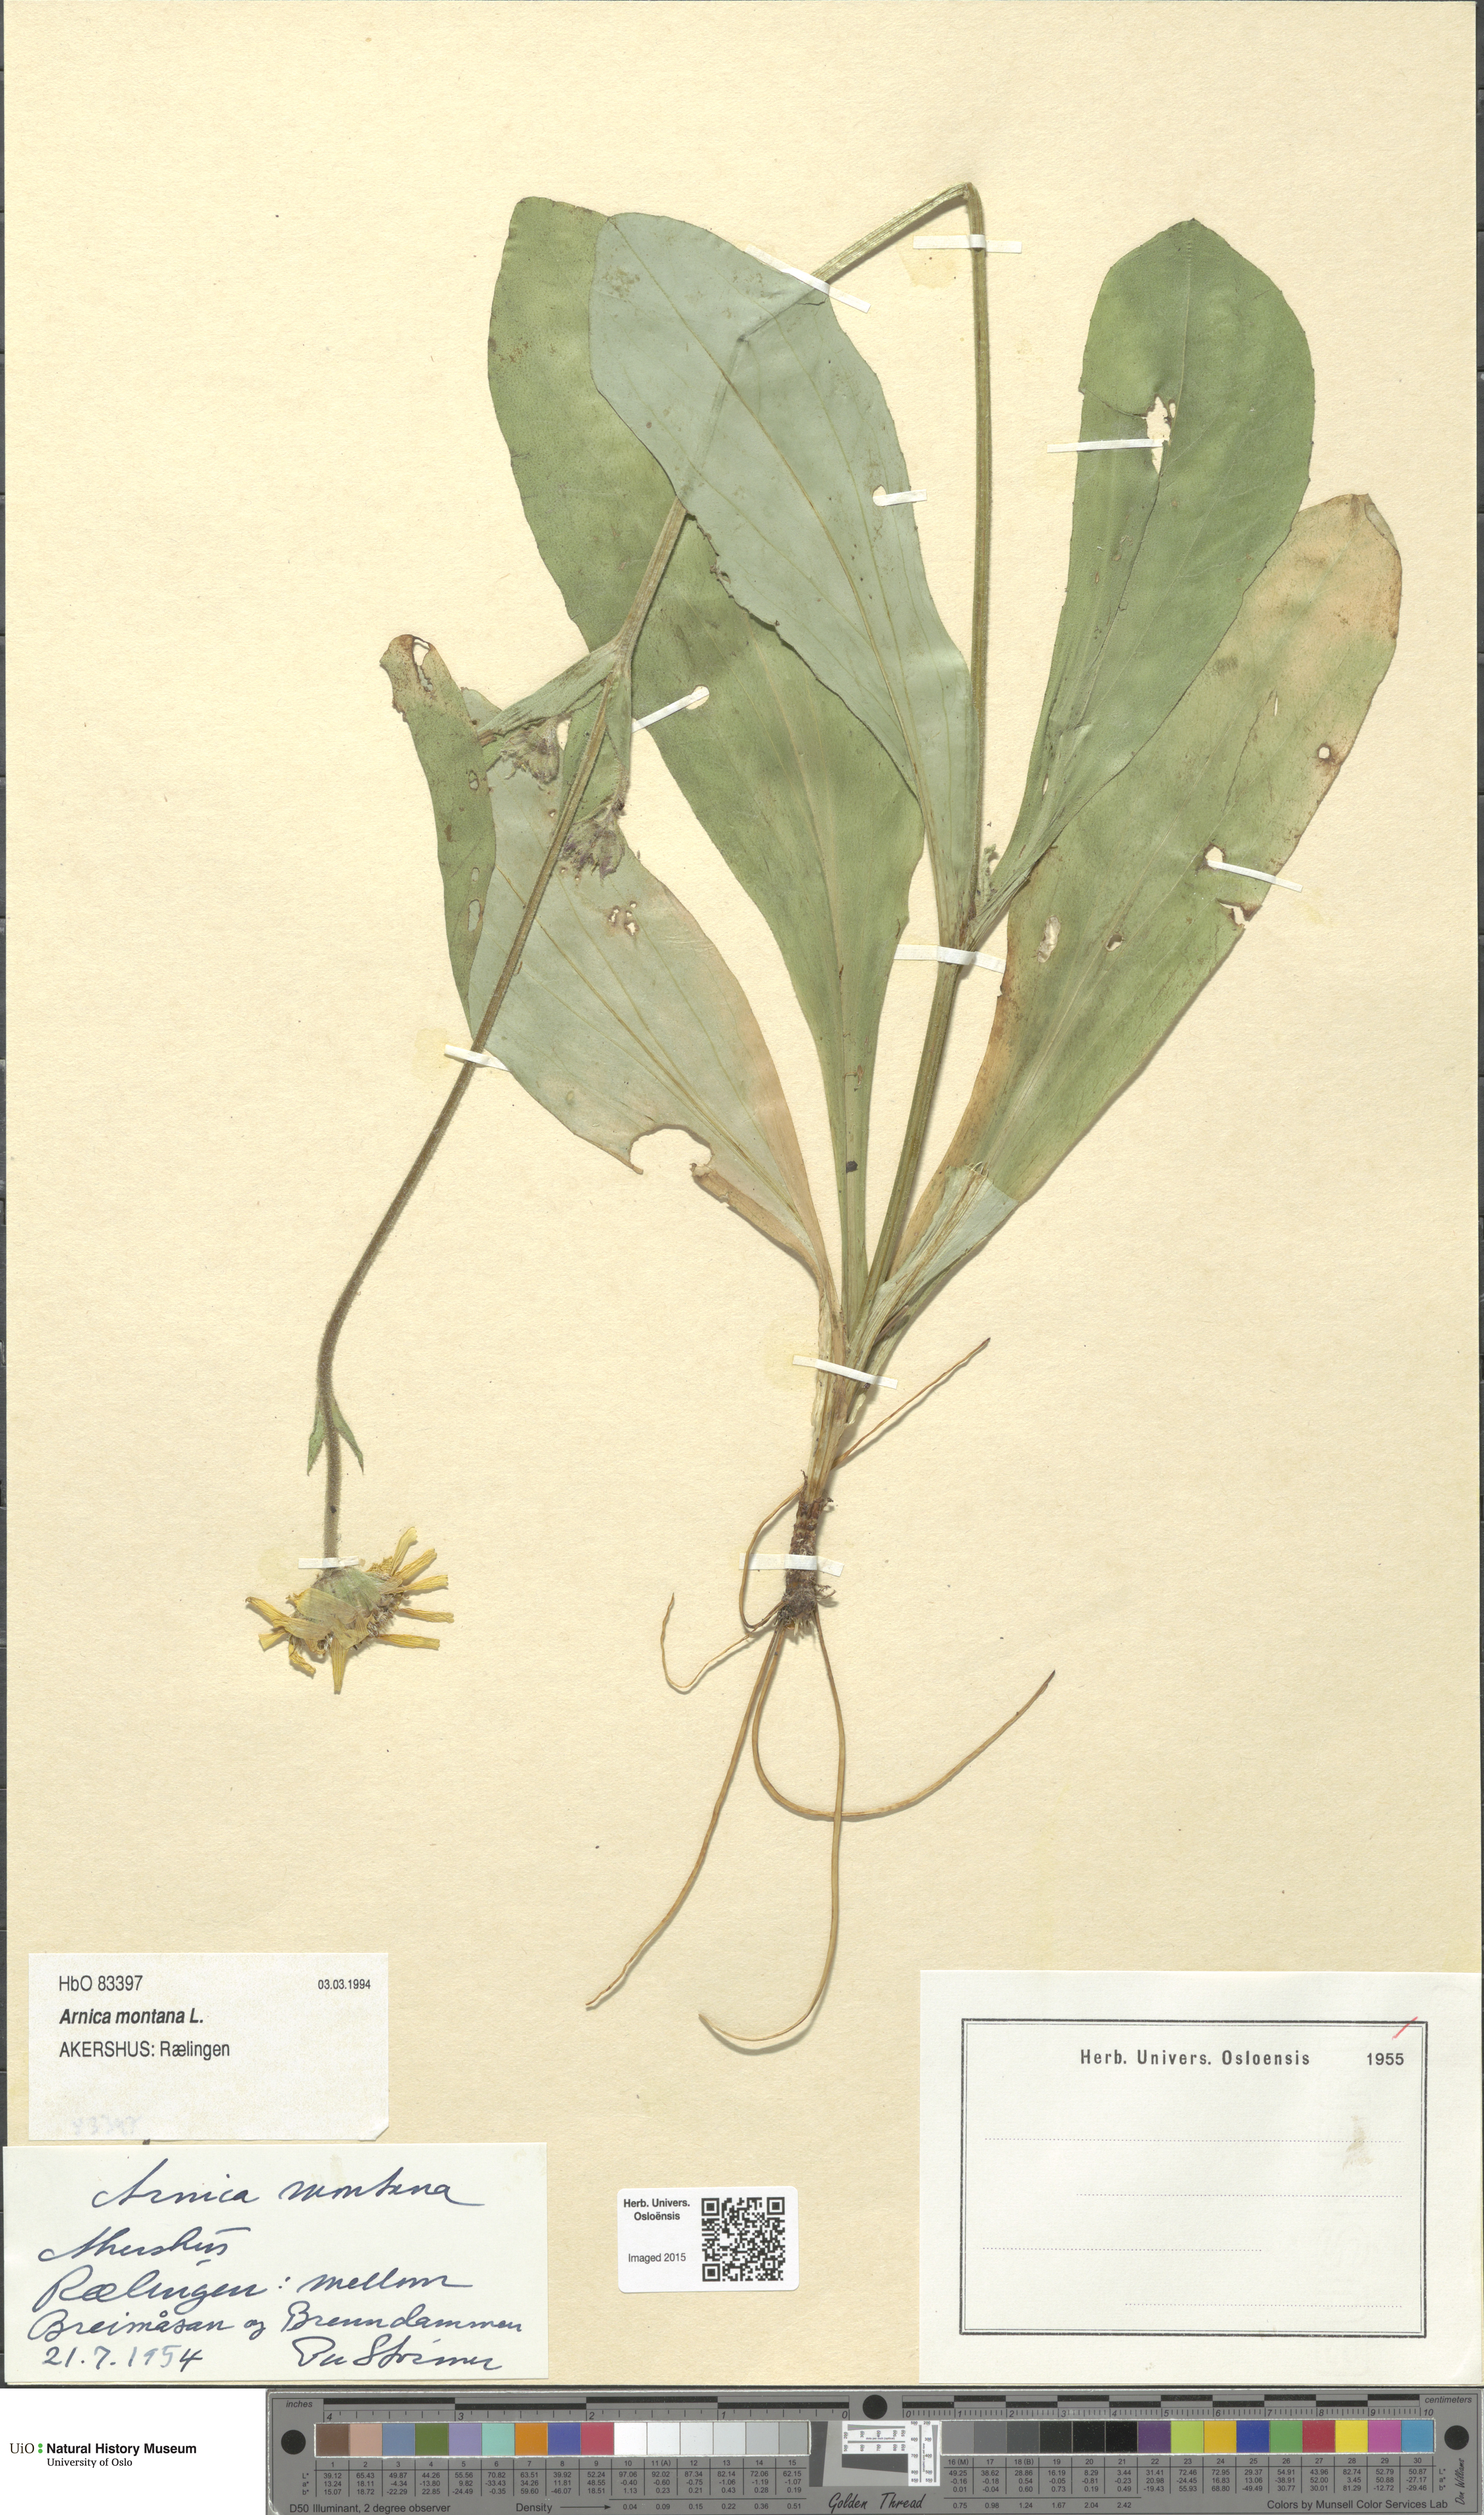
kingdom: Plantae
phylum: Tracheophyta
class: Magnoliopsida
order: Asterales
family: Asteraceae
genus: Arnica
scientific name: Arnica montana
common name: Leopard's bane
